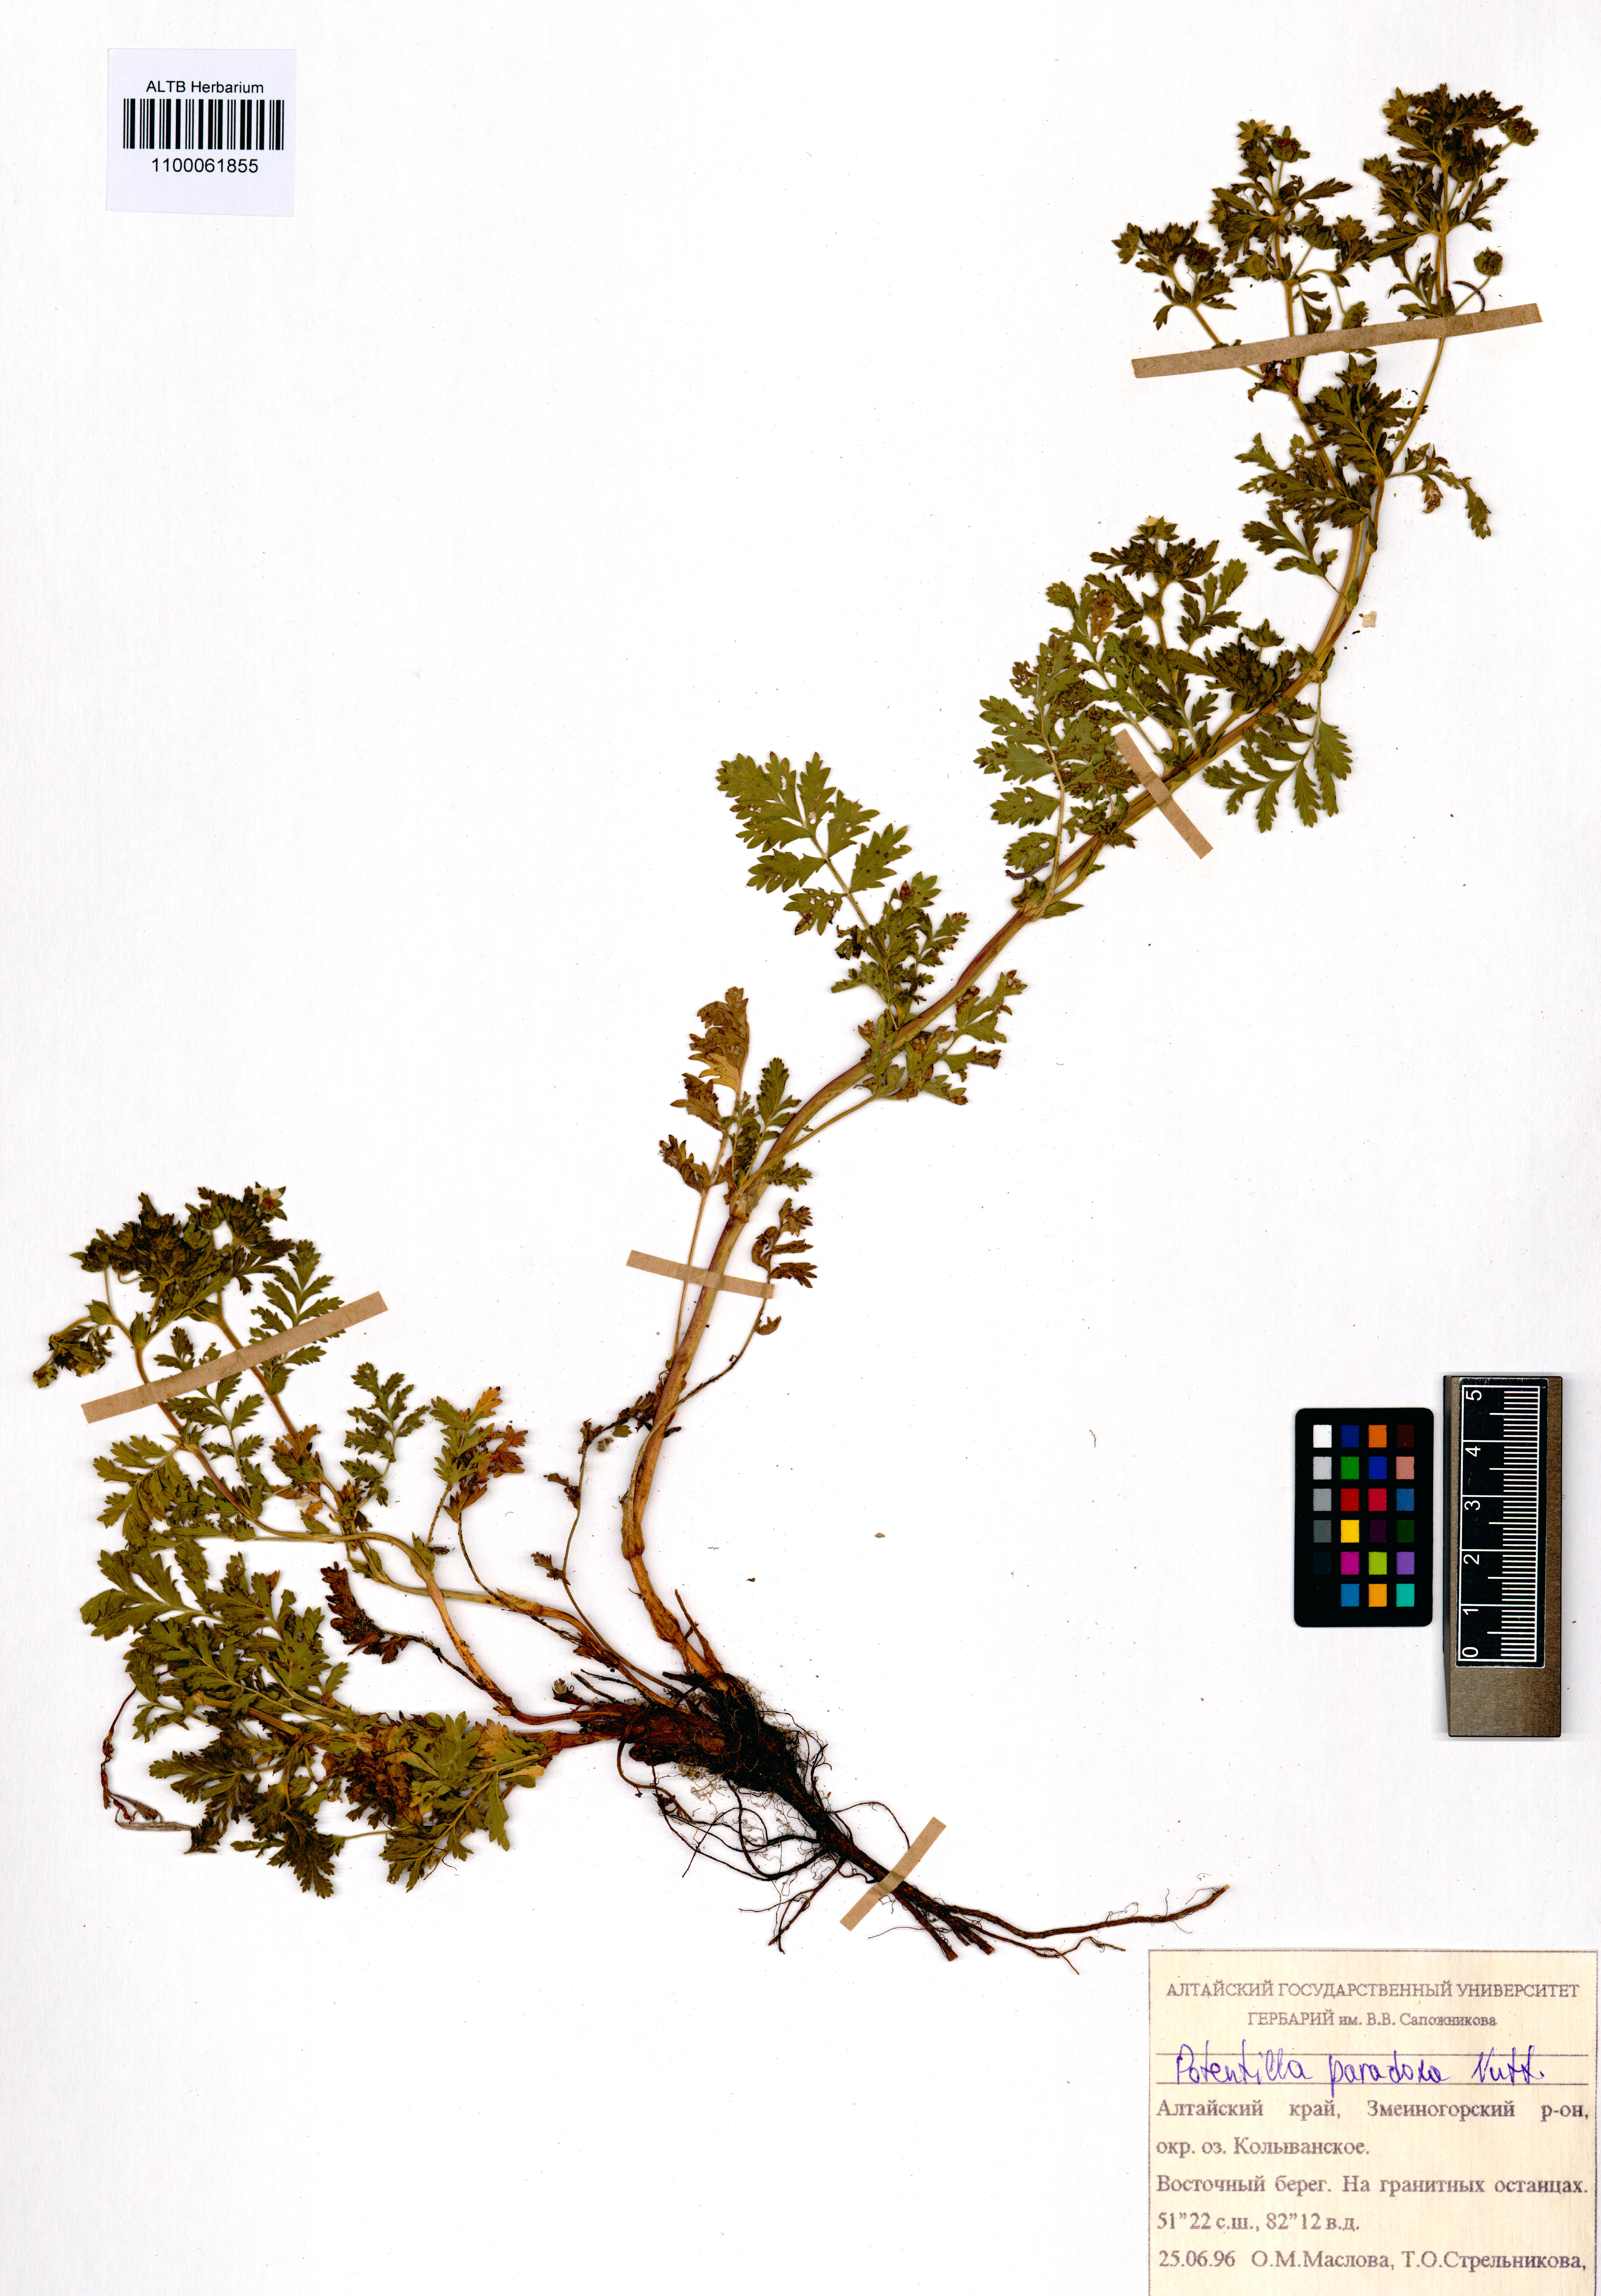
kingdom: Plantae
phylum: Tracheophyta
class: Magnoliopsida
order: Rosales
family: Rosaceae
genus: Potentilla
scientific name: Potentilla supina
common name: Prostrate cinquefoil
